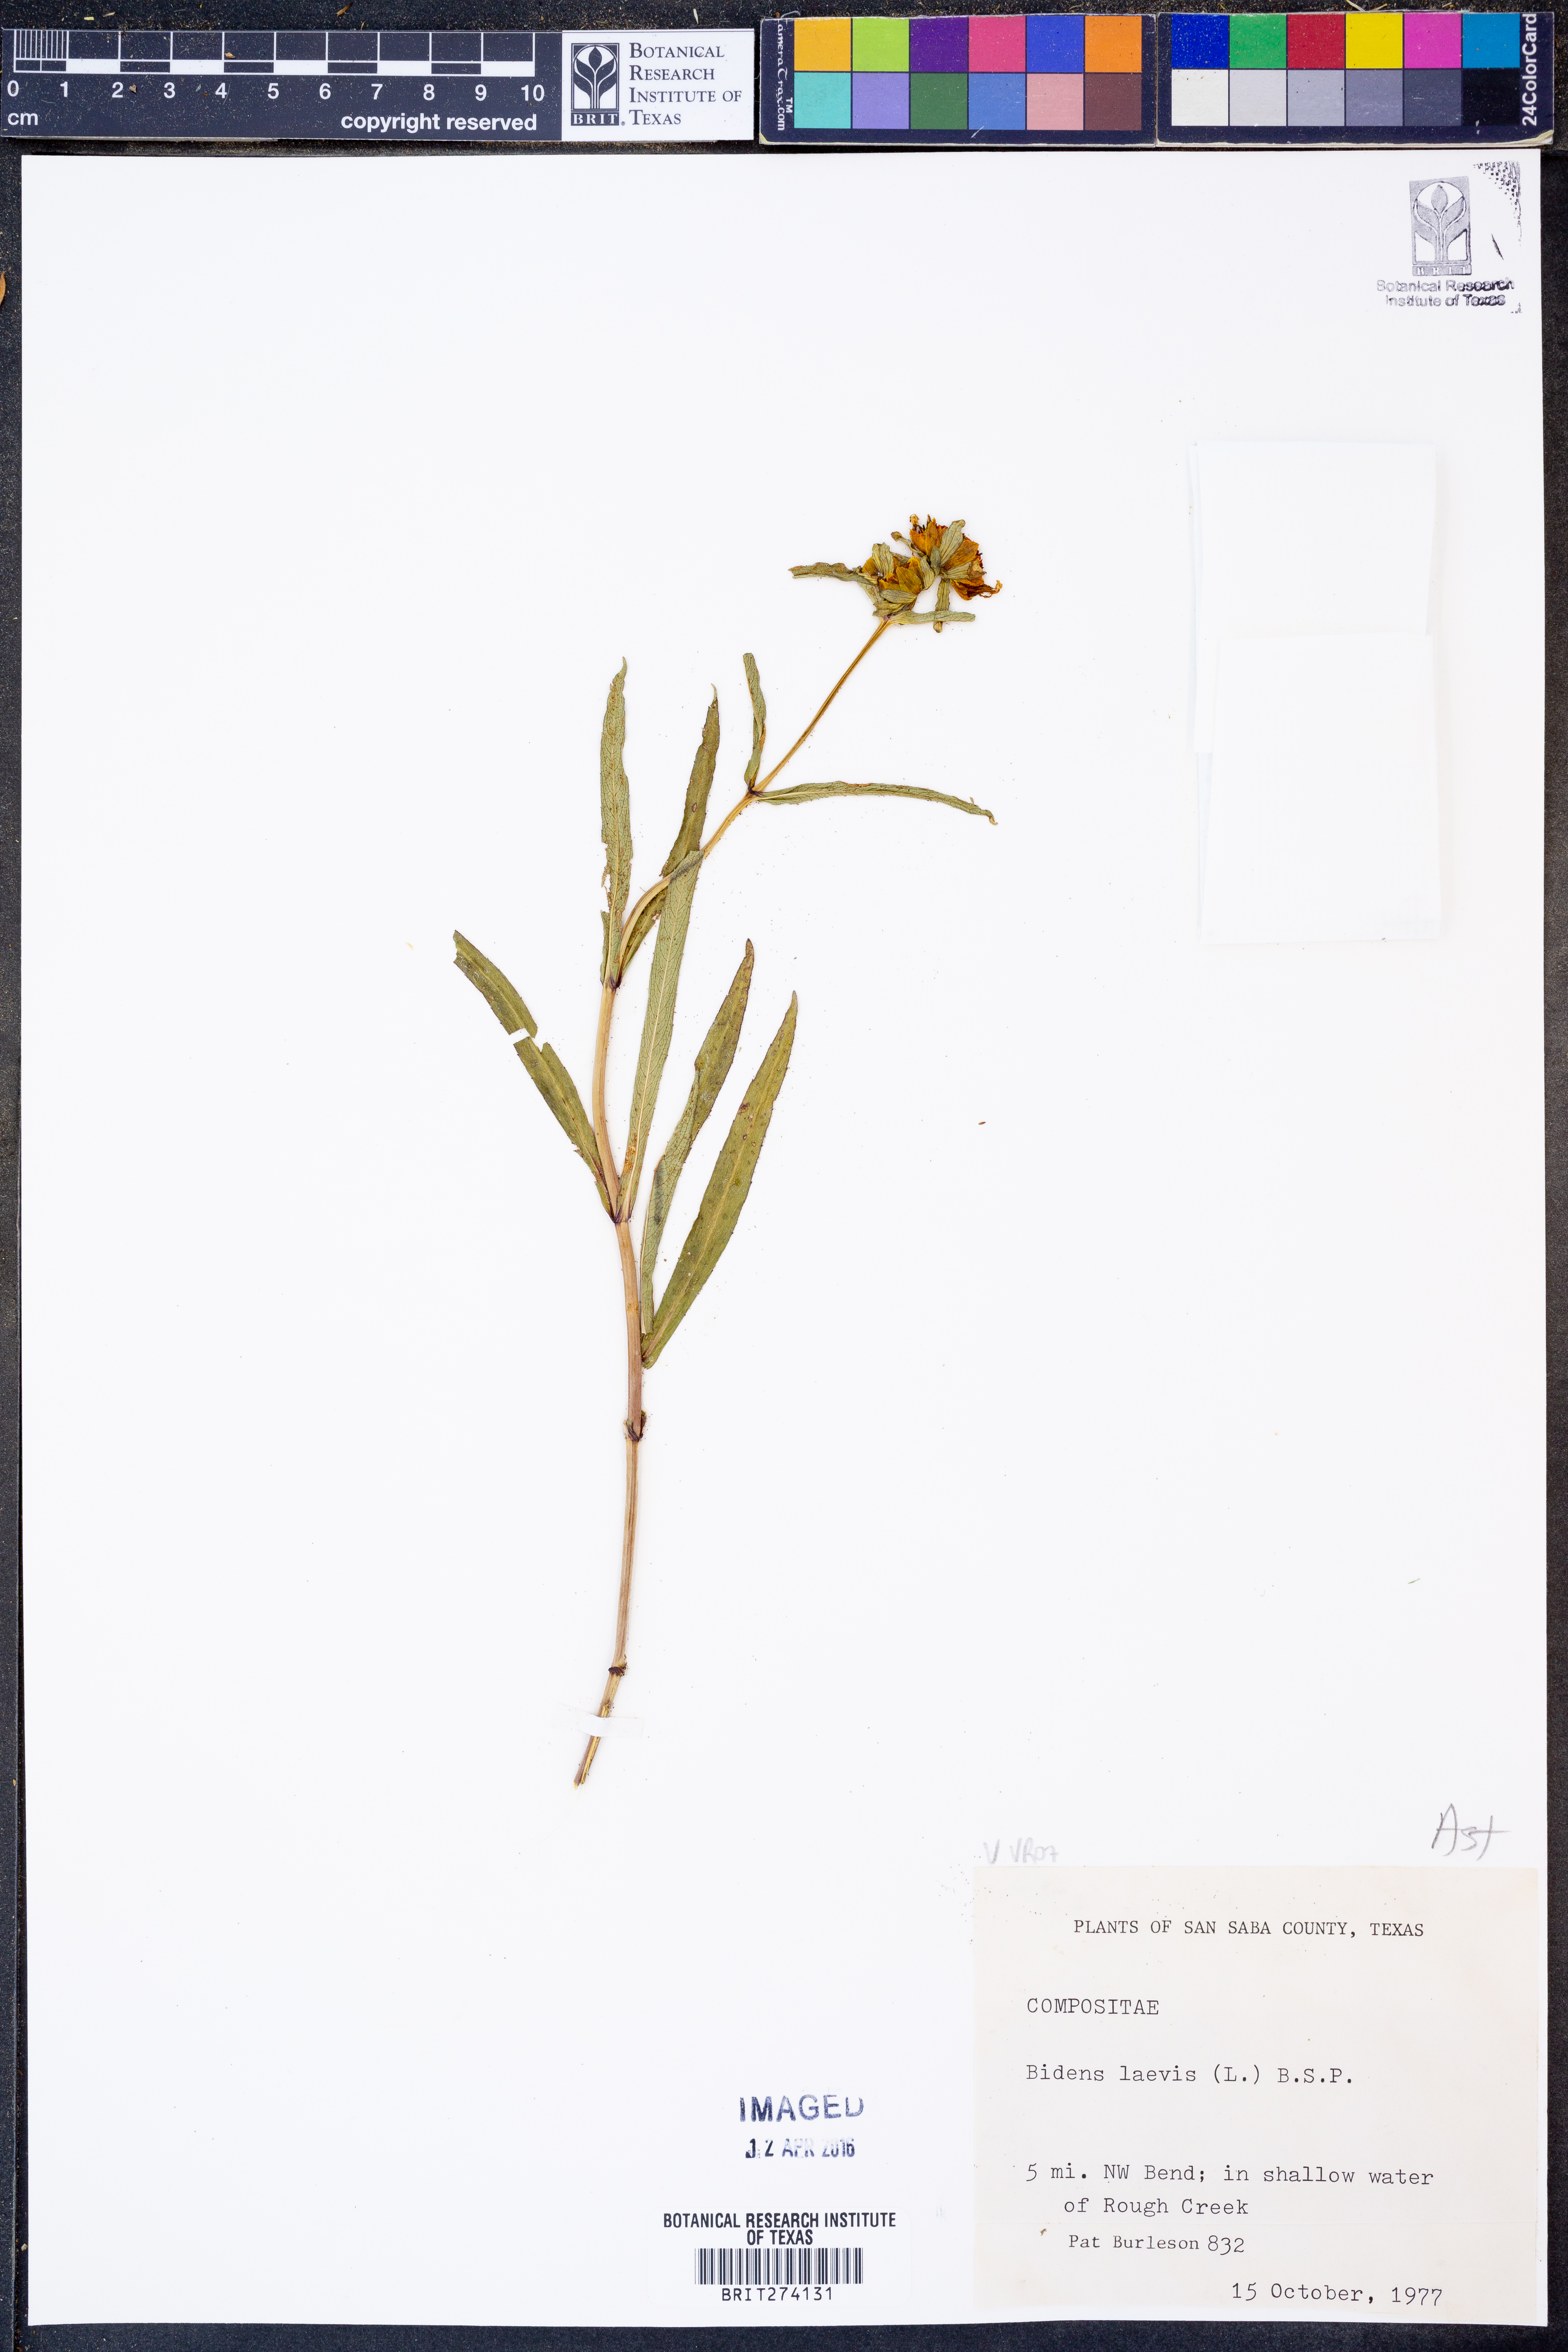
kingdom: Plantae
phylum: Tracheophyta
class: Magnoliopsida
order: Asterales
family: Asteraceae
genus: Bidens
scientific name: Bidens laevis
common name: Larger bur-marigold
